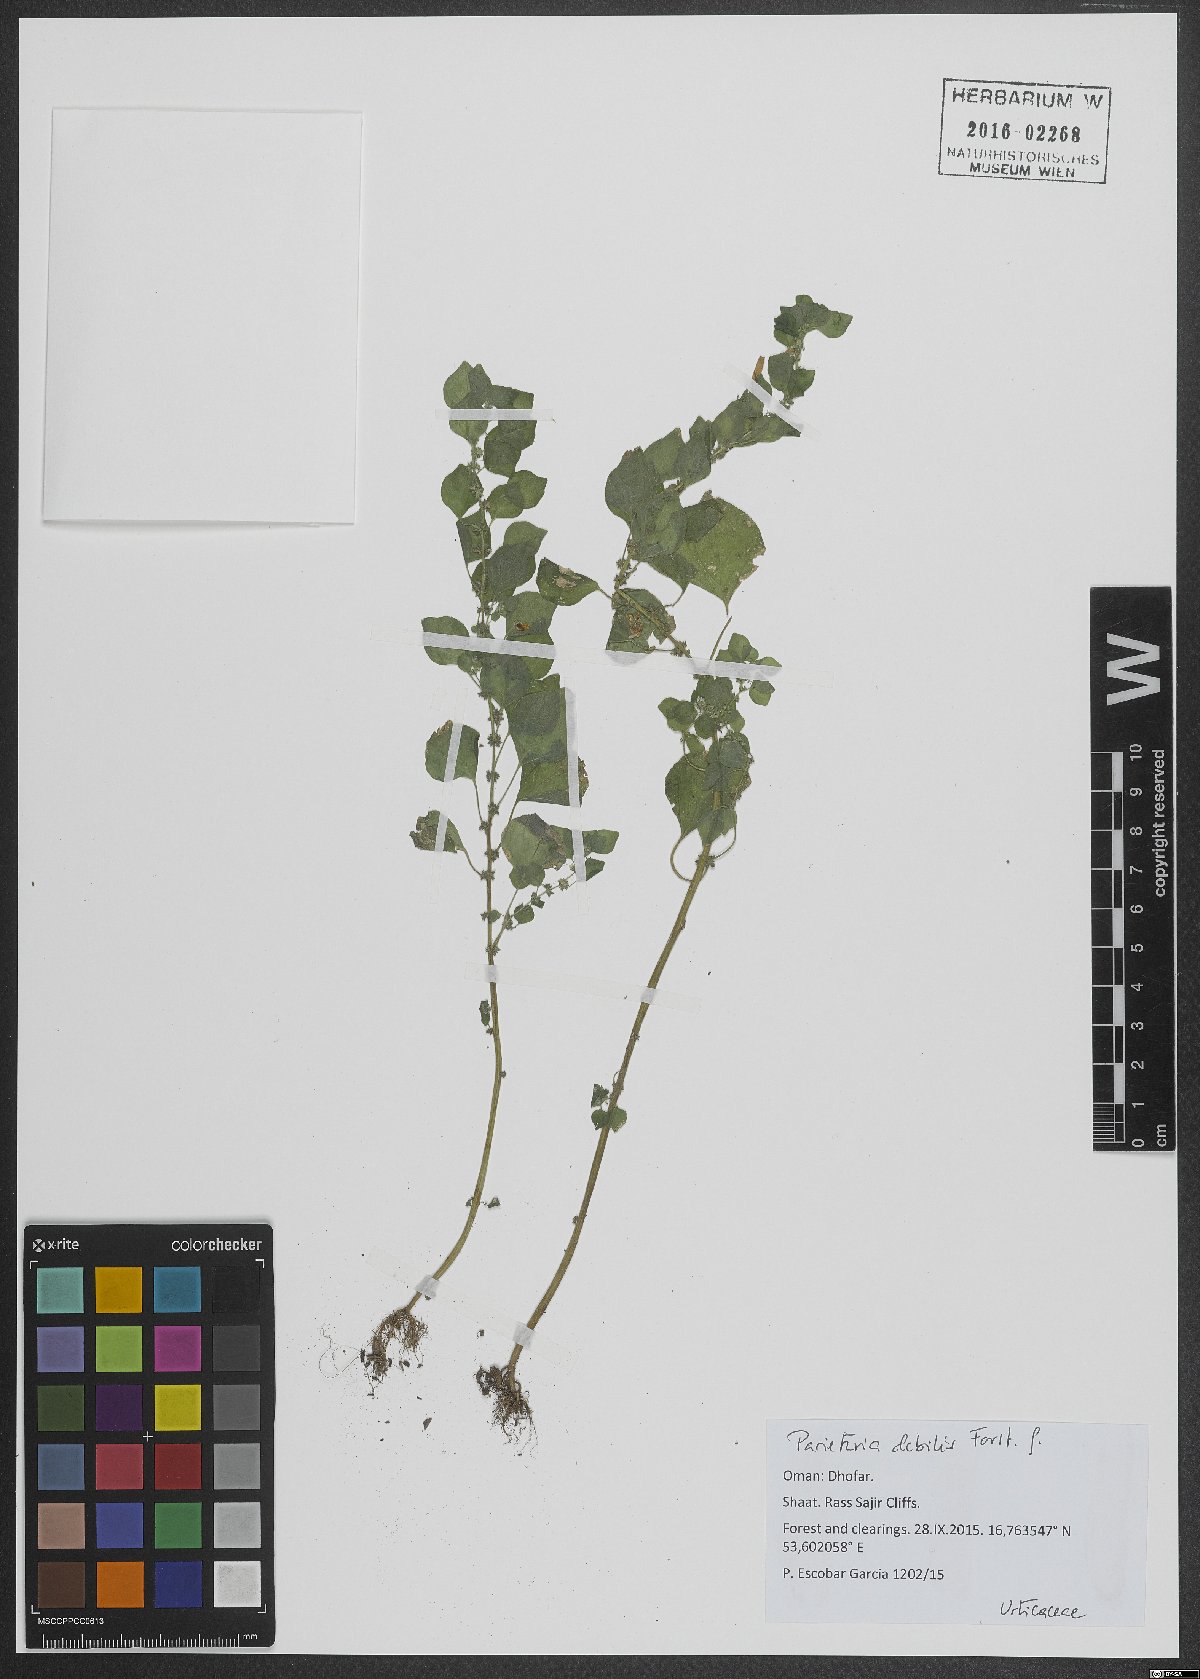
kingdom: Plantae
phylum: Tracheophyta
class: Magnoliopsida
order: Rosales
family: Urticaceae
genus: Parietaria
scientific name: Parietaria debilis
